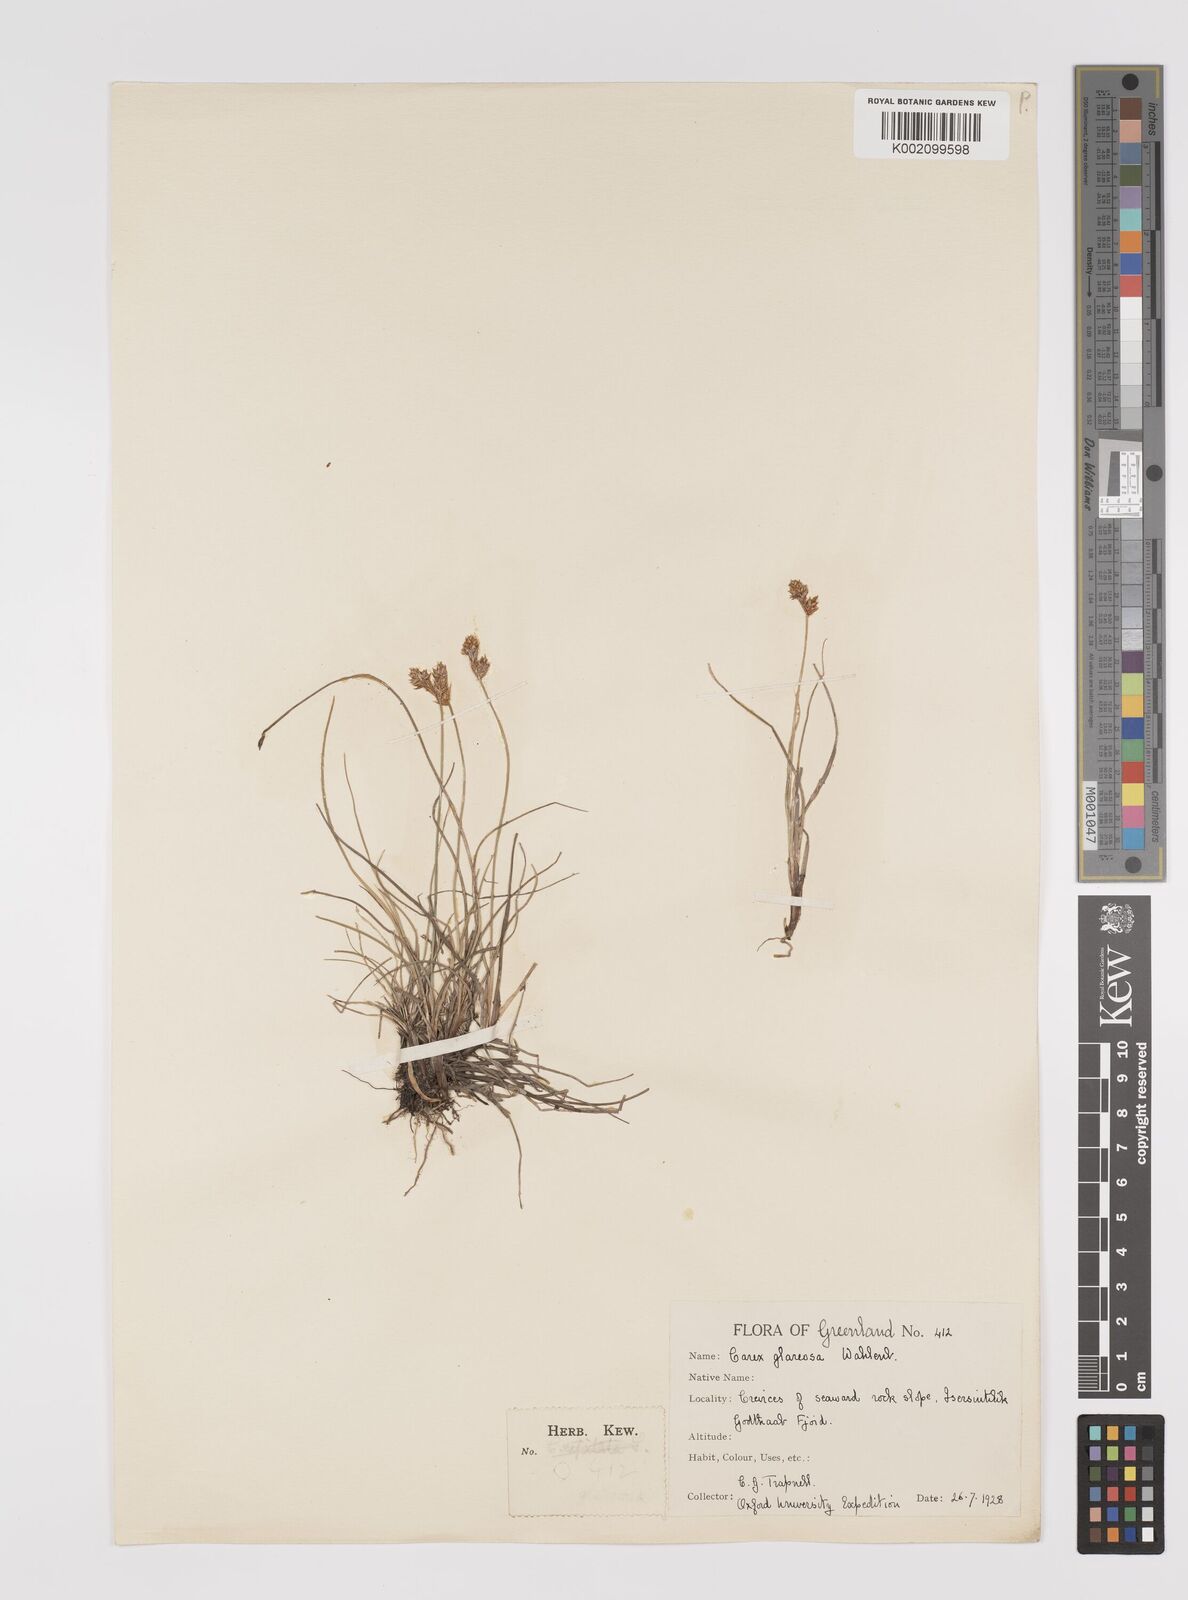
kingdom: Plantae
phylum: Tracheophyta
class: Liliopsida
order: Poales
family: Cyperaceae
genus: Carex
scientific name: Carex glareosa
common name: Clustered sedge
